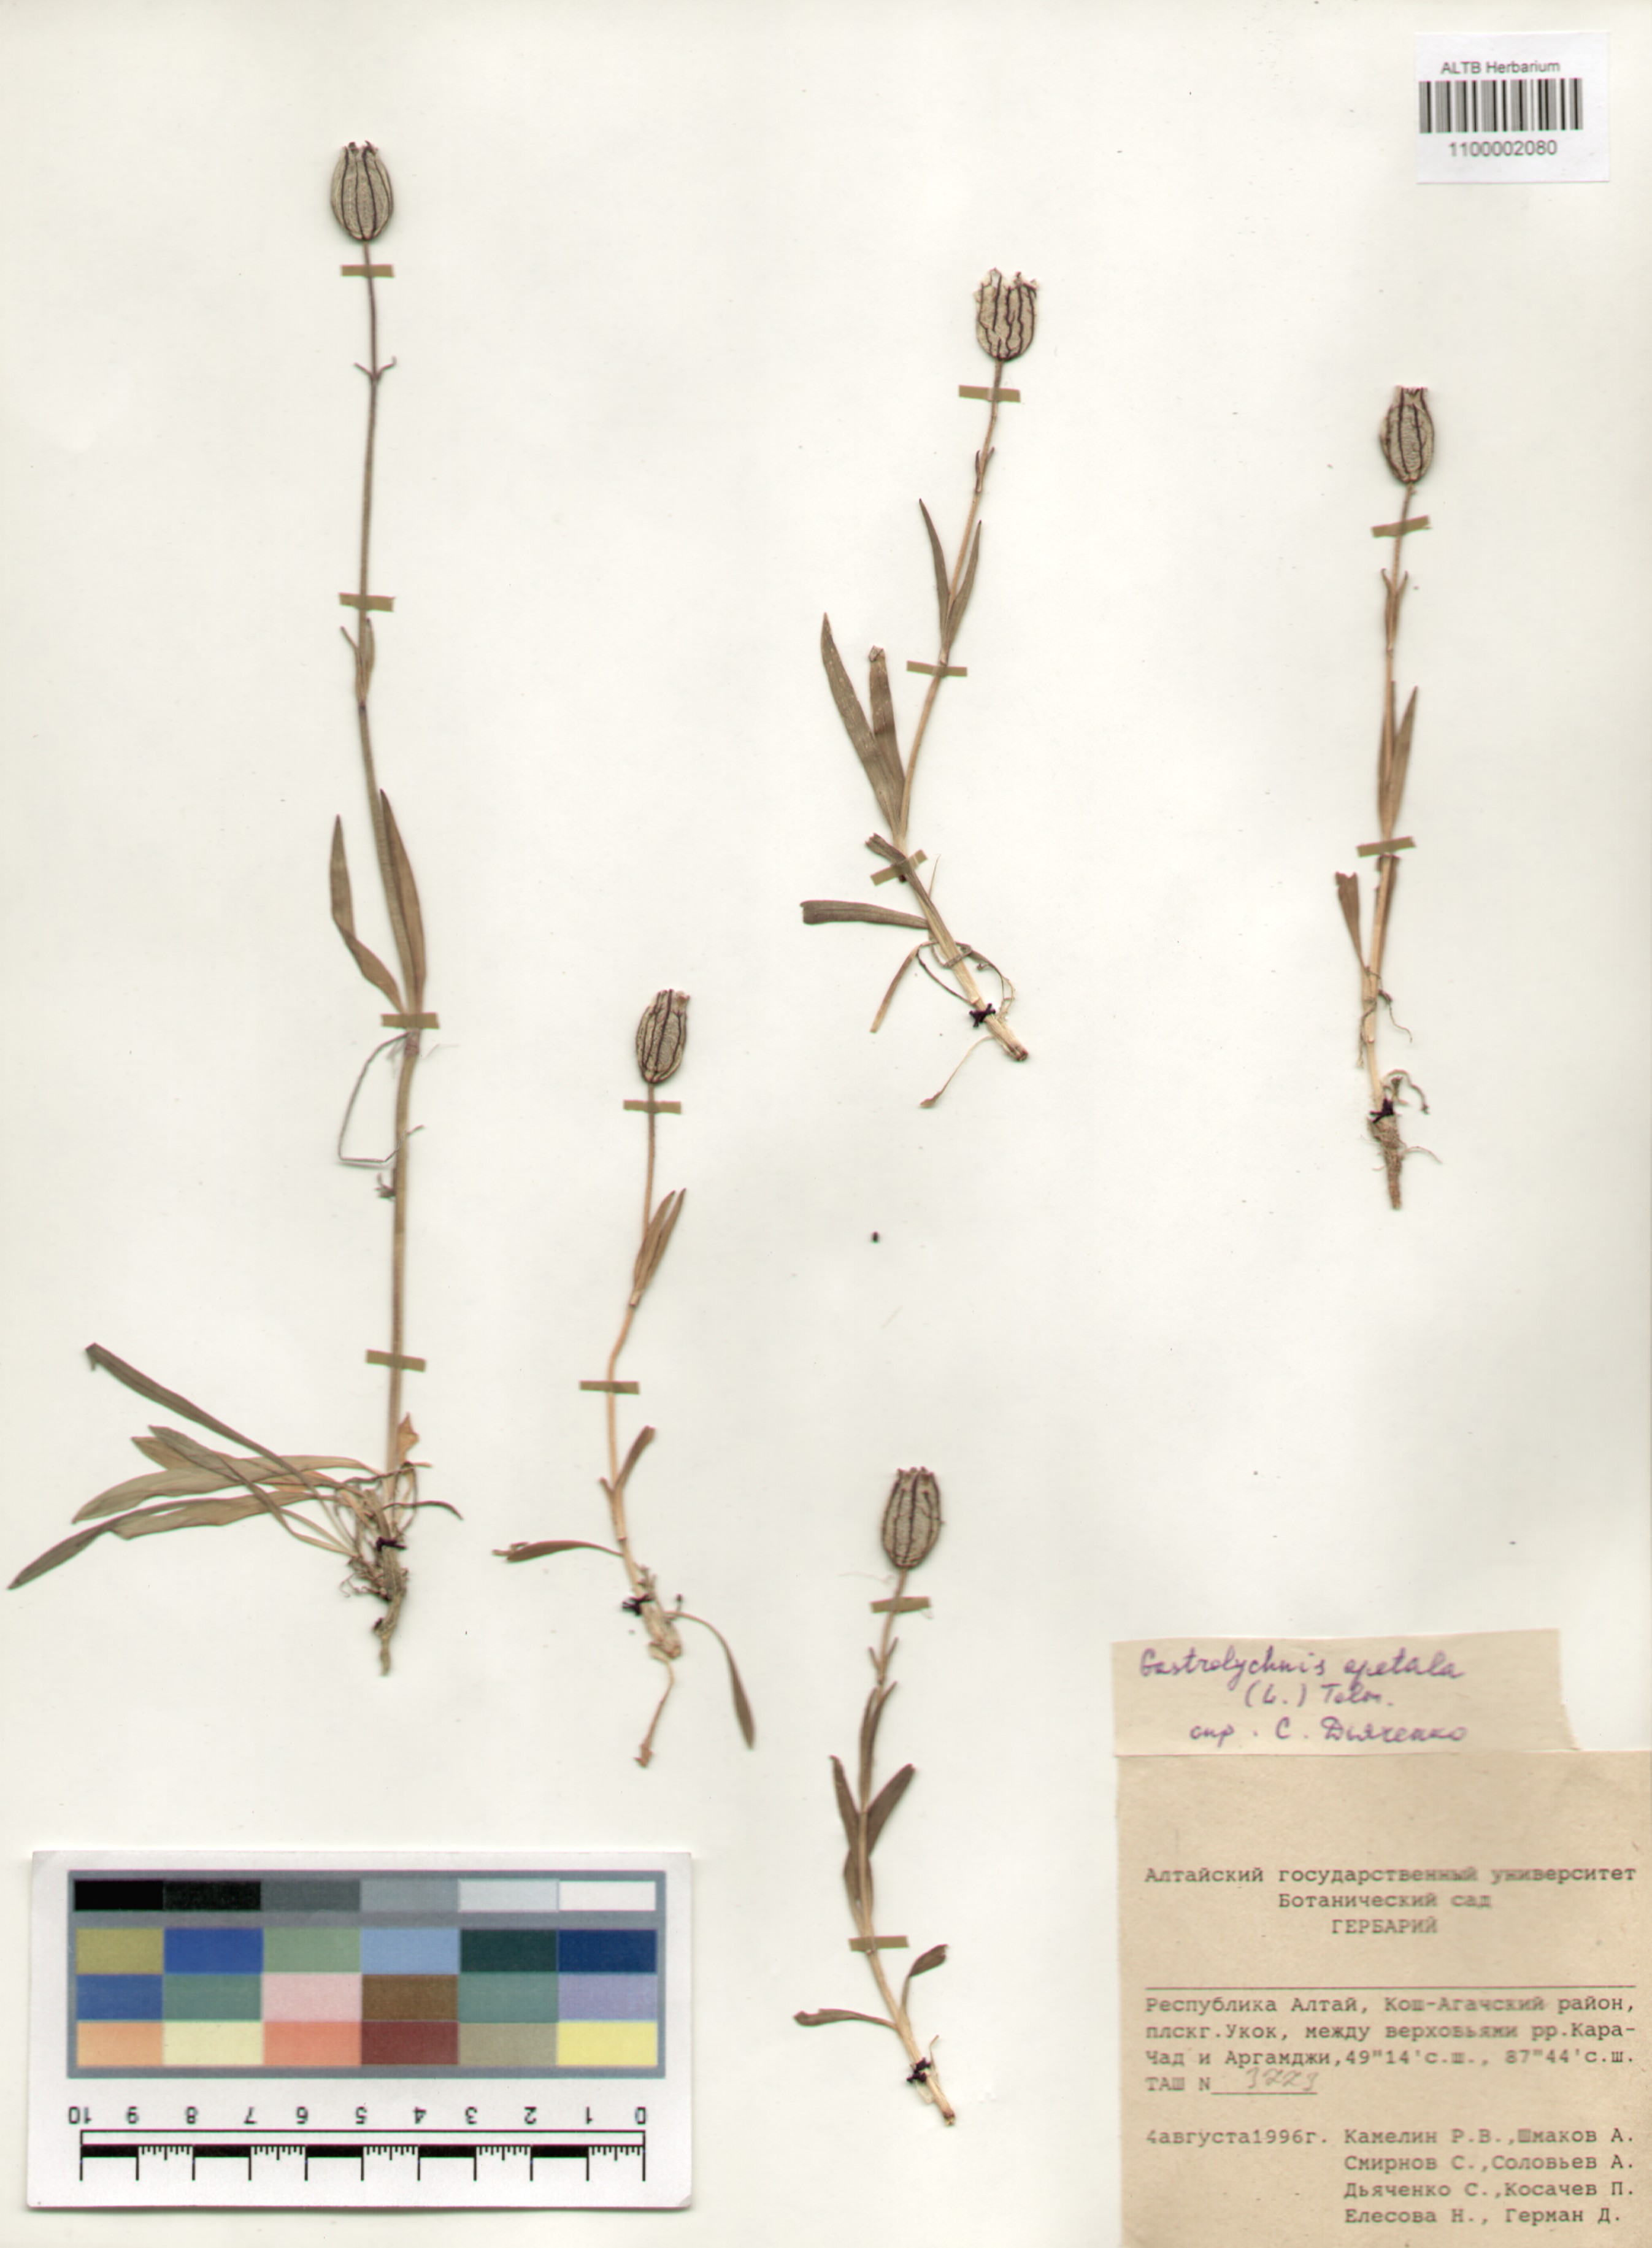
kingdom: Plantae
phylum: Tracheophyta
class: Magnoliopsida
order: Caryophyllales
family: Caryophyllaceae
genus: Silene
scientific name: Silene wahlbergella
